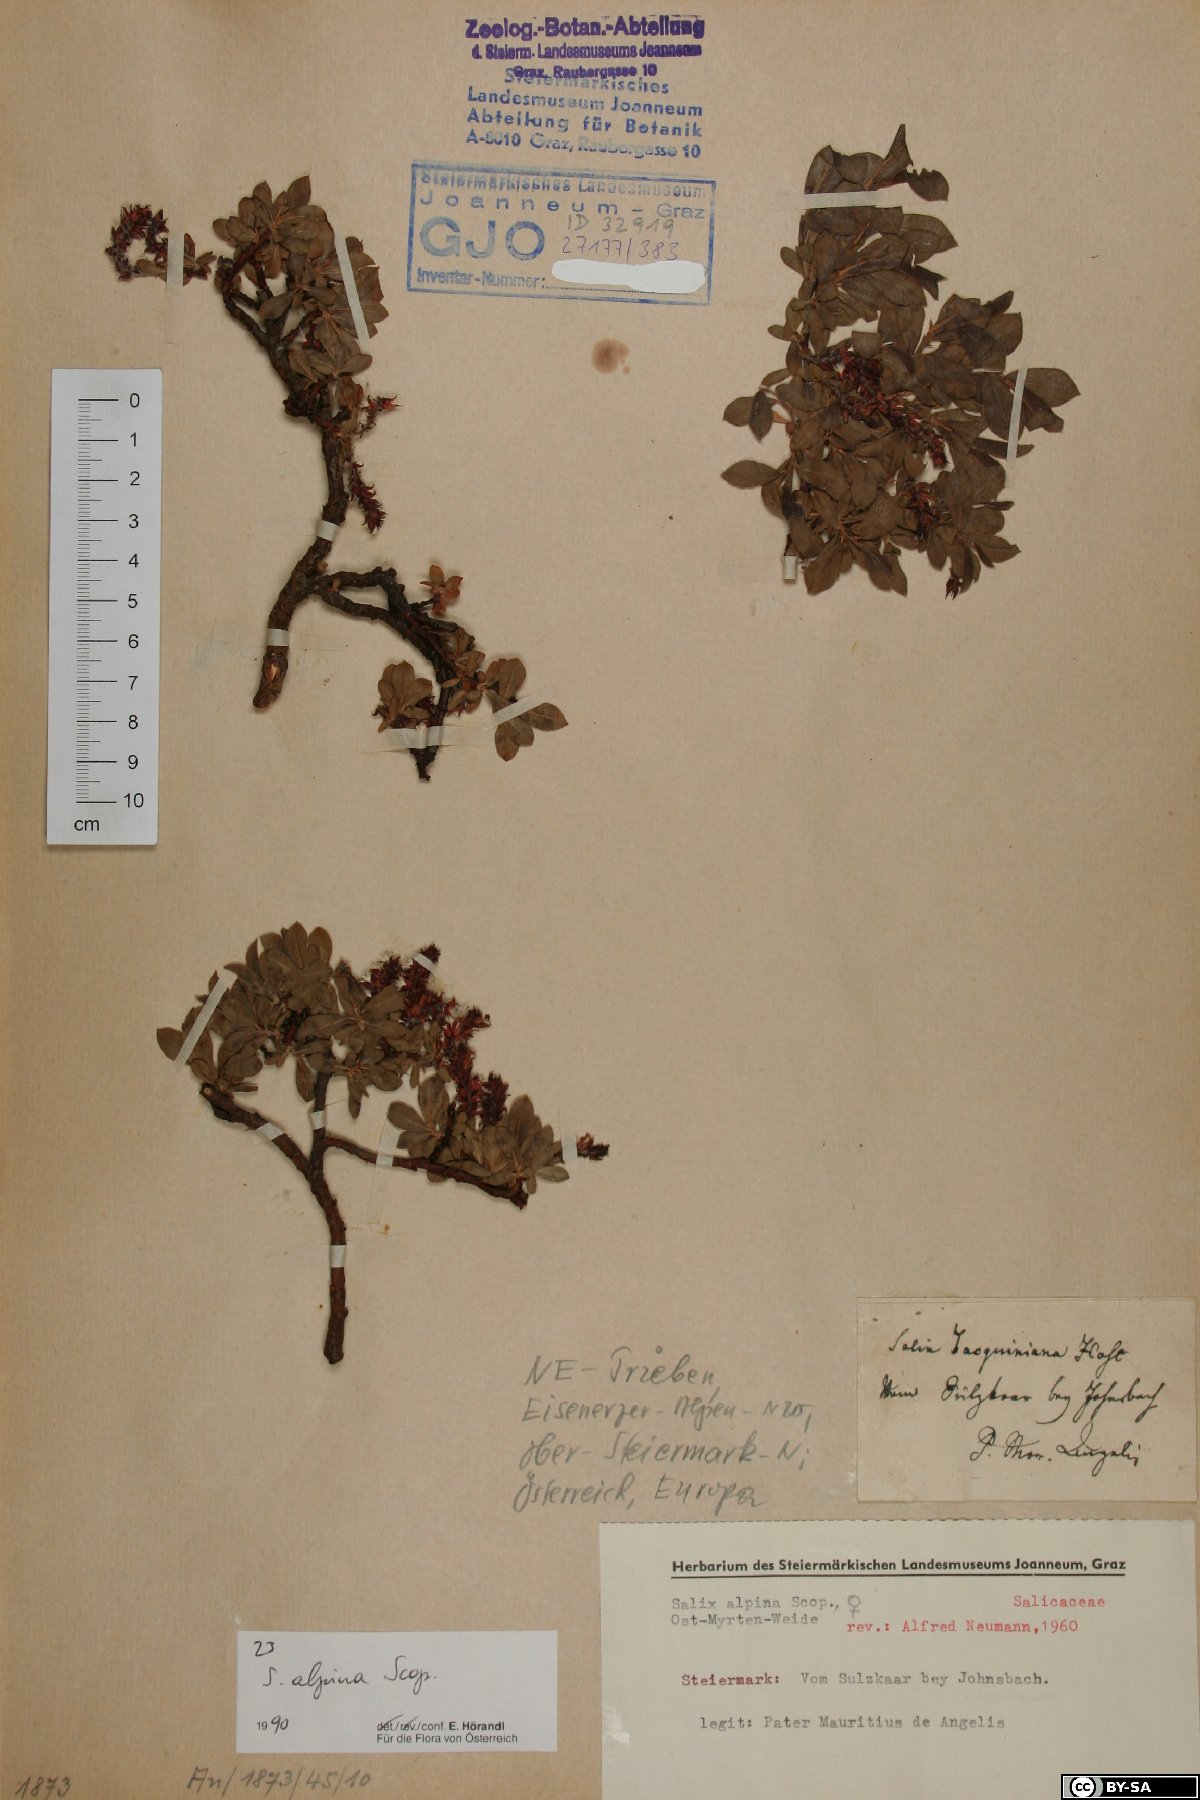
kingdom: Plantae
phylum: Tracheophyta
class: Magnoliopsida
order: Malpighiales
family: Salicaceae
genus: Salix
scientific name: Salix alpina
